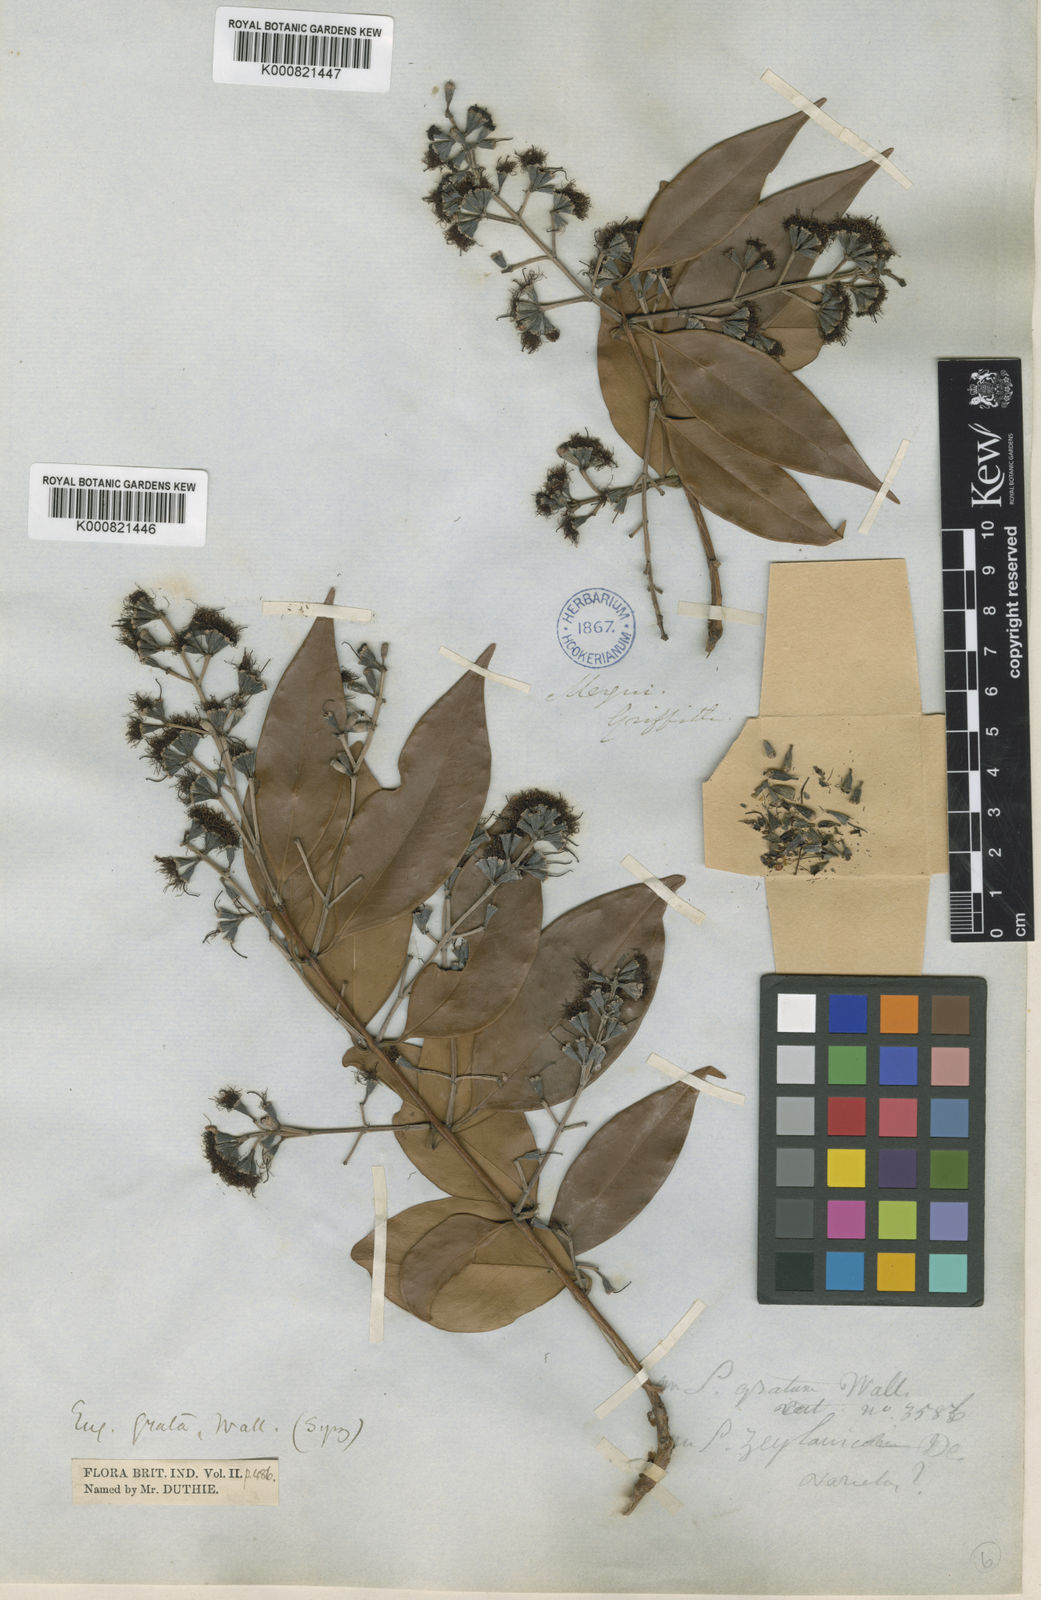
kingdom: Plantae
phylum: Tracheophyta
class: Magnoliopsida
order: Myrtales
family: Myrtaceae
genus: Syzygium
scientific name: Syzygium
